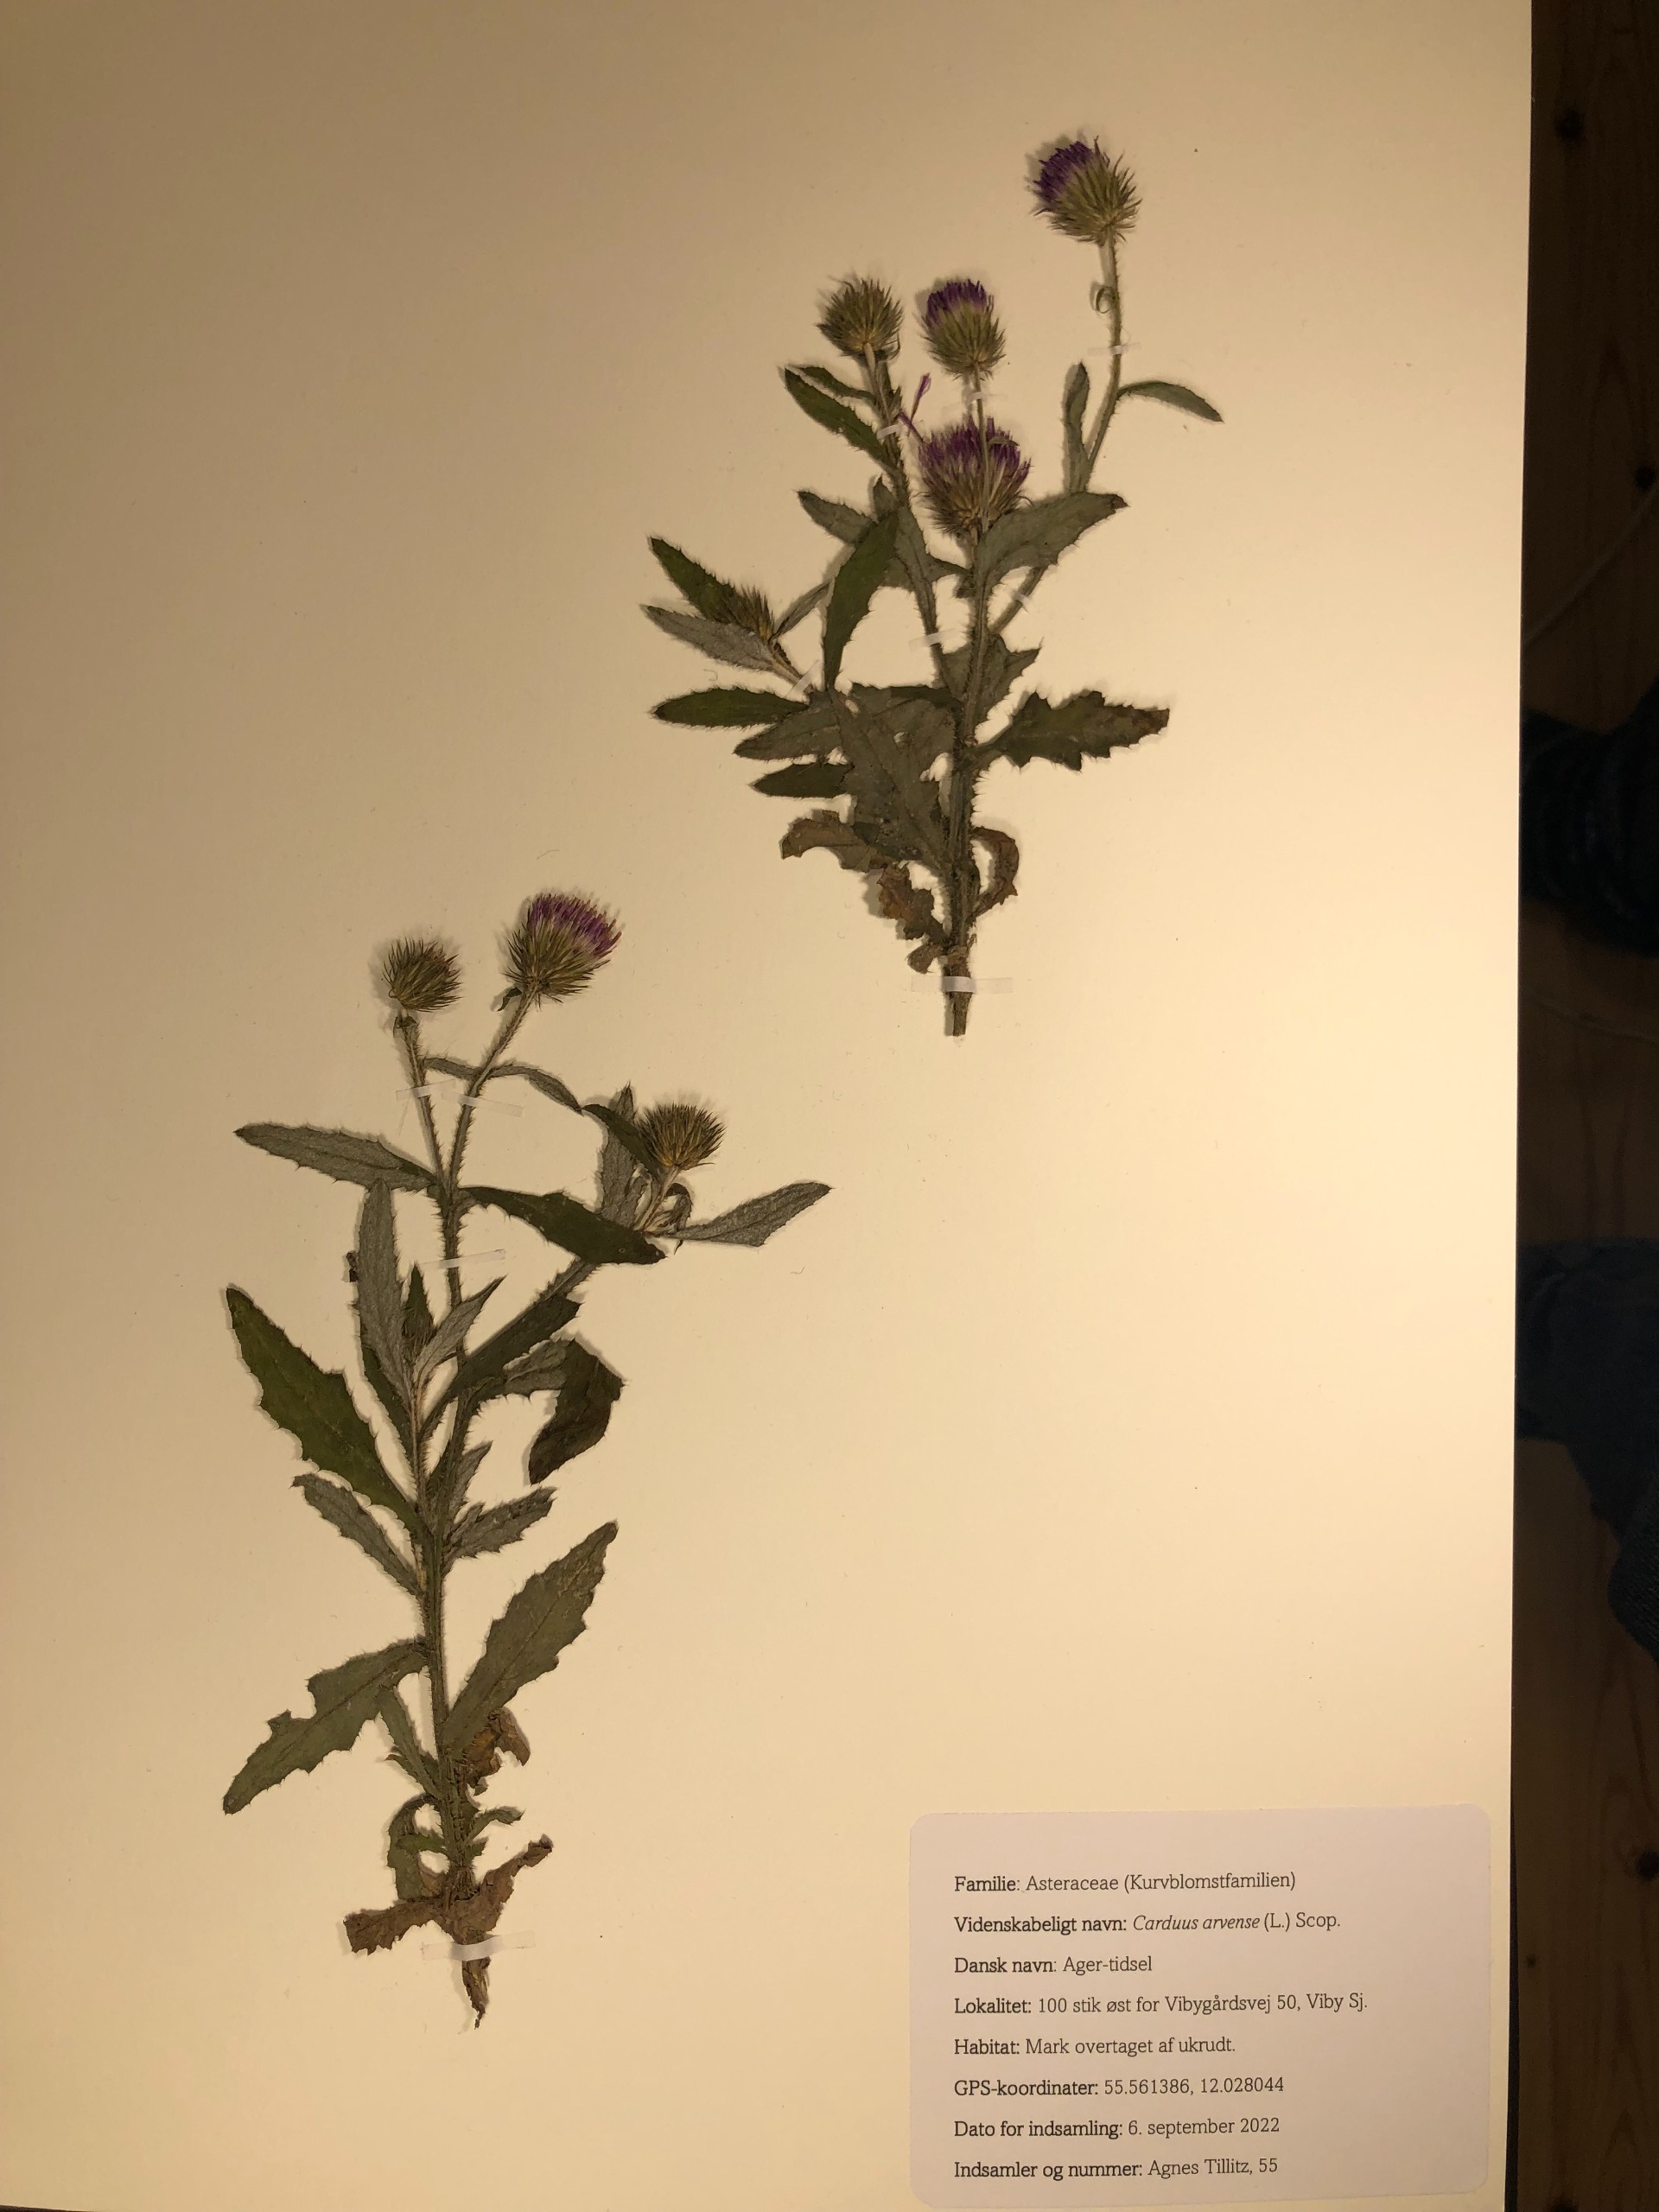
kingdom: Plantae
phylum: Tracheophyta
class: Magnoliopsida
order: Asterales
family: Asteraceae
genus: Carduus
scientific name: Carduus crispus
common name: Kruset tidsel
